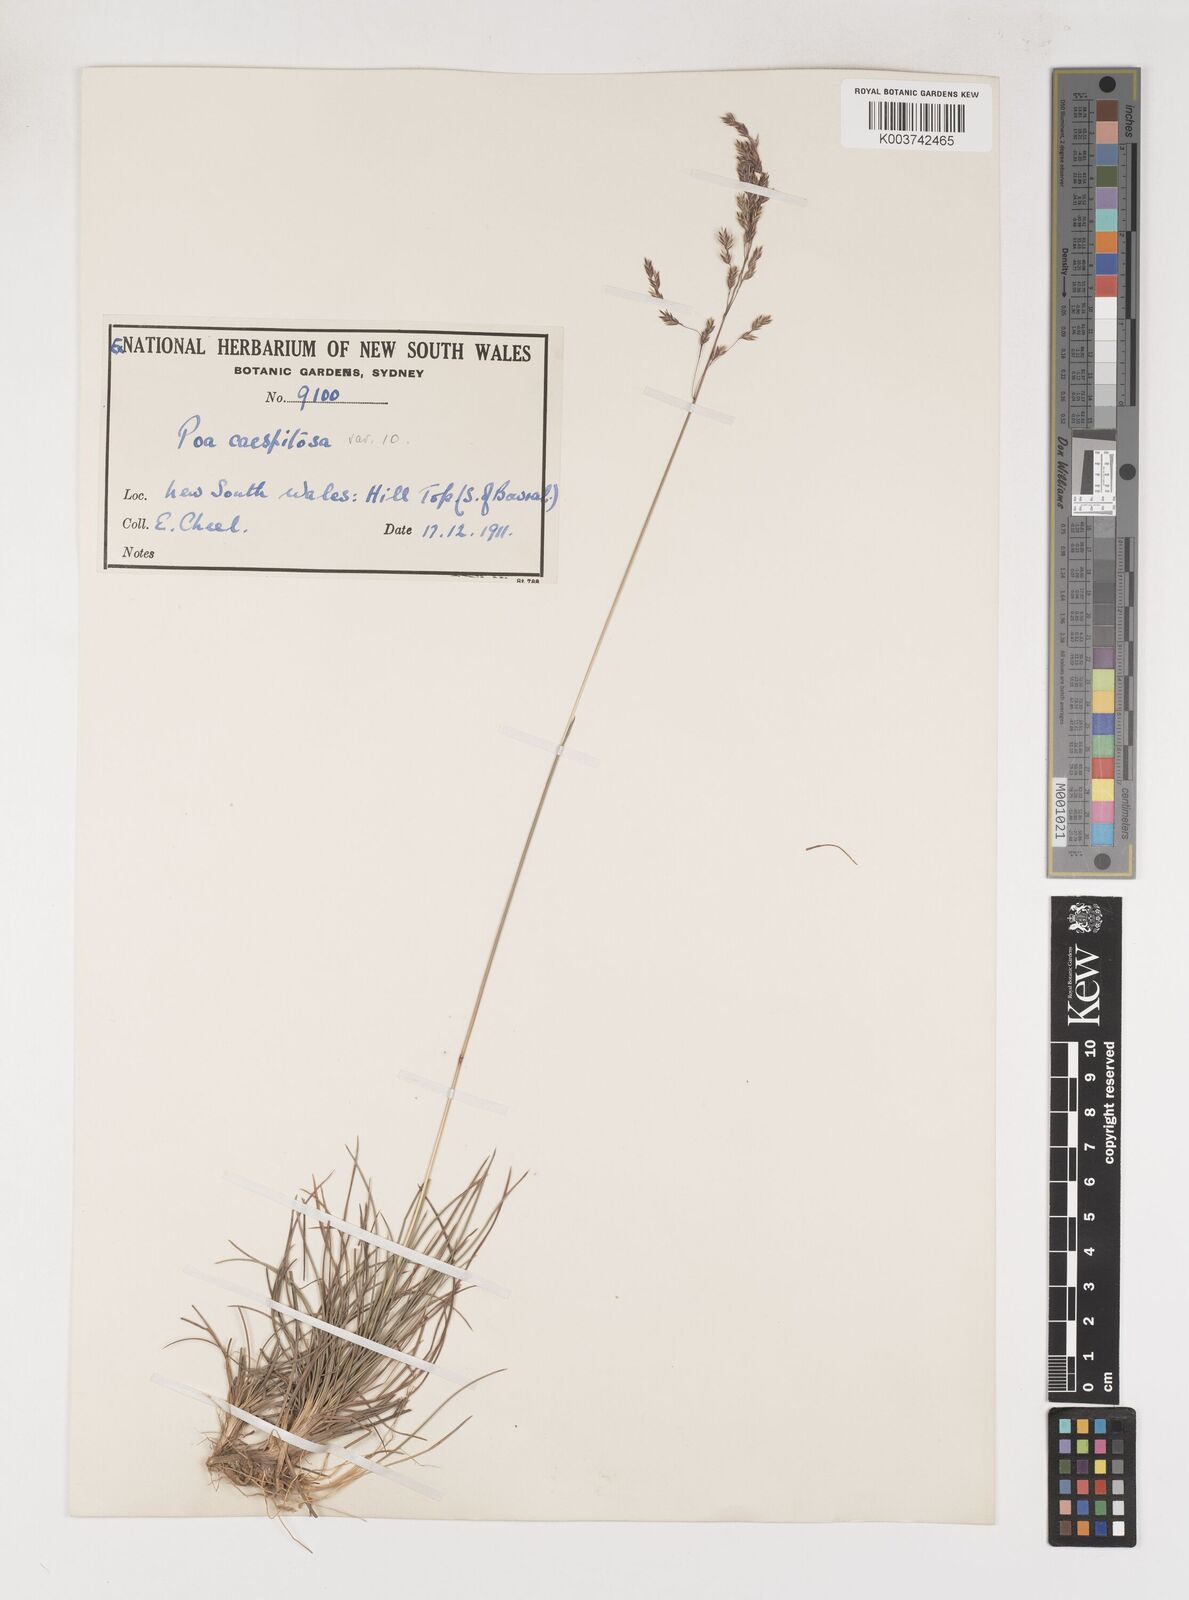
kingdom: Plantae
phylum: Tracheophyta
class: Liliopsida
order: Poales
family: Poaceae
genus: Poa
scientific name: Poa
